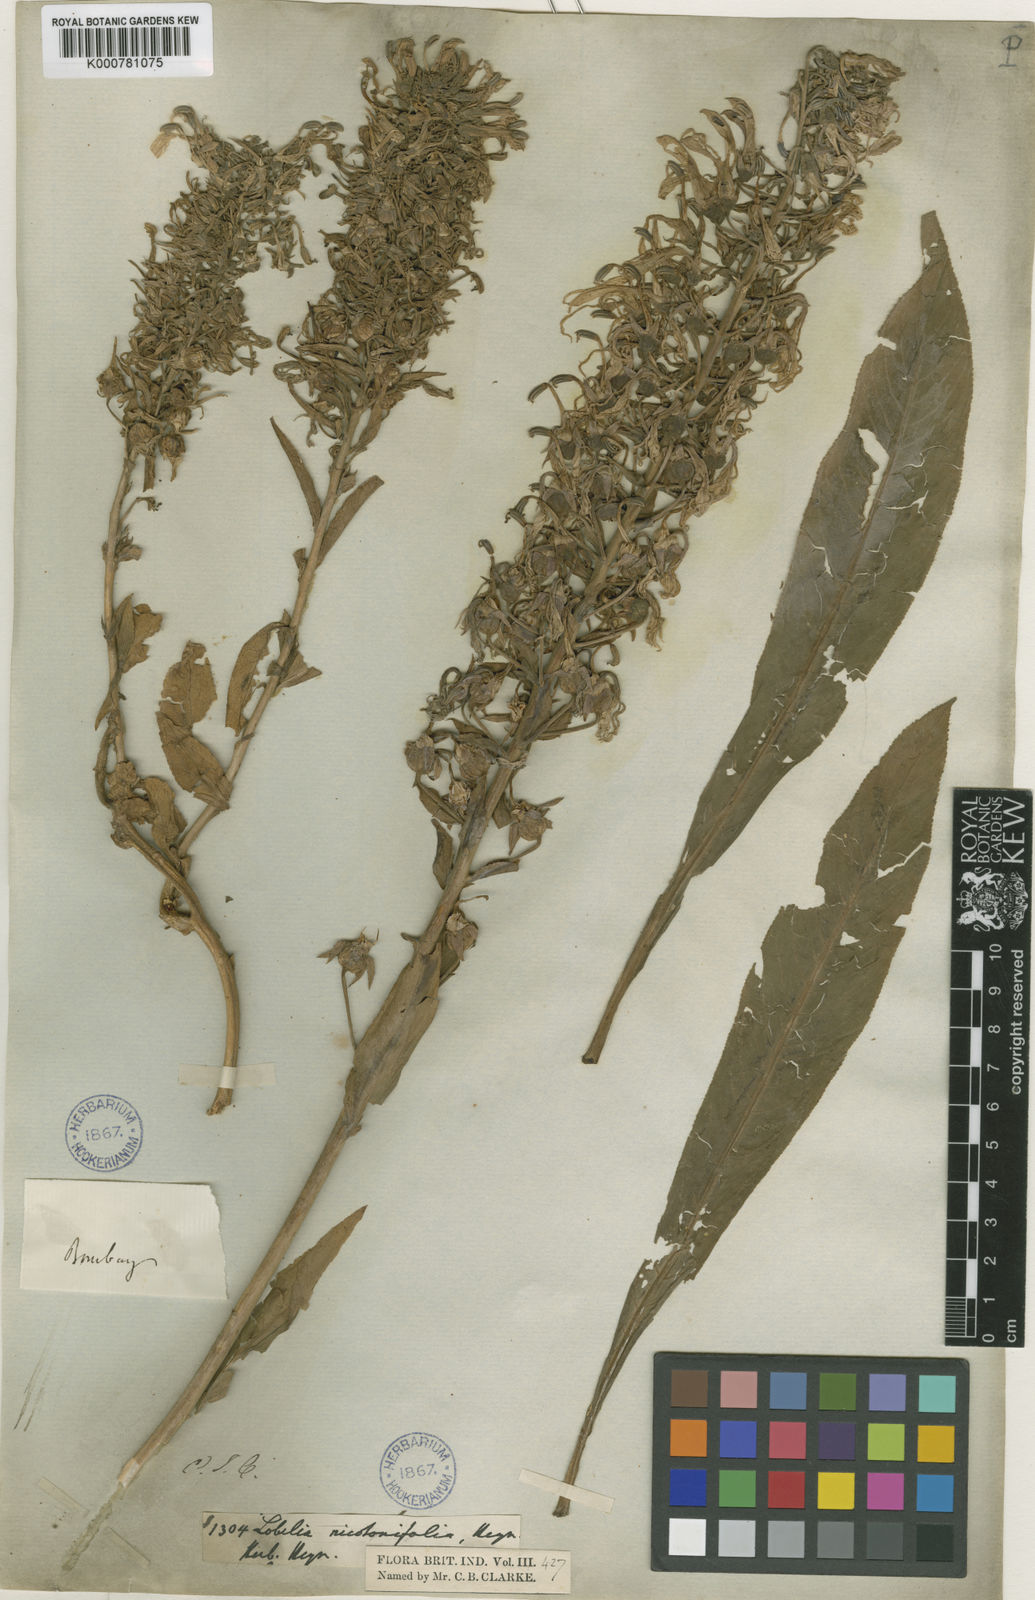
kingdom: Plantae
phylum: Tracheophyta
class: Magnoliopsida
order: Asterales
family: Campanulaceae
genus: Lobelia
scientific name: Lobelia
